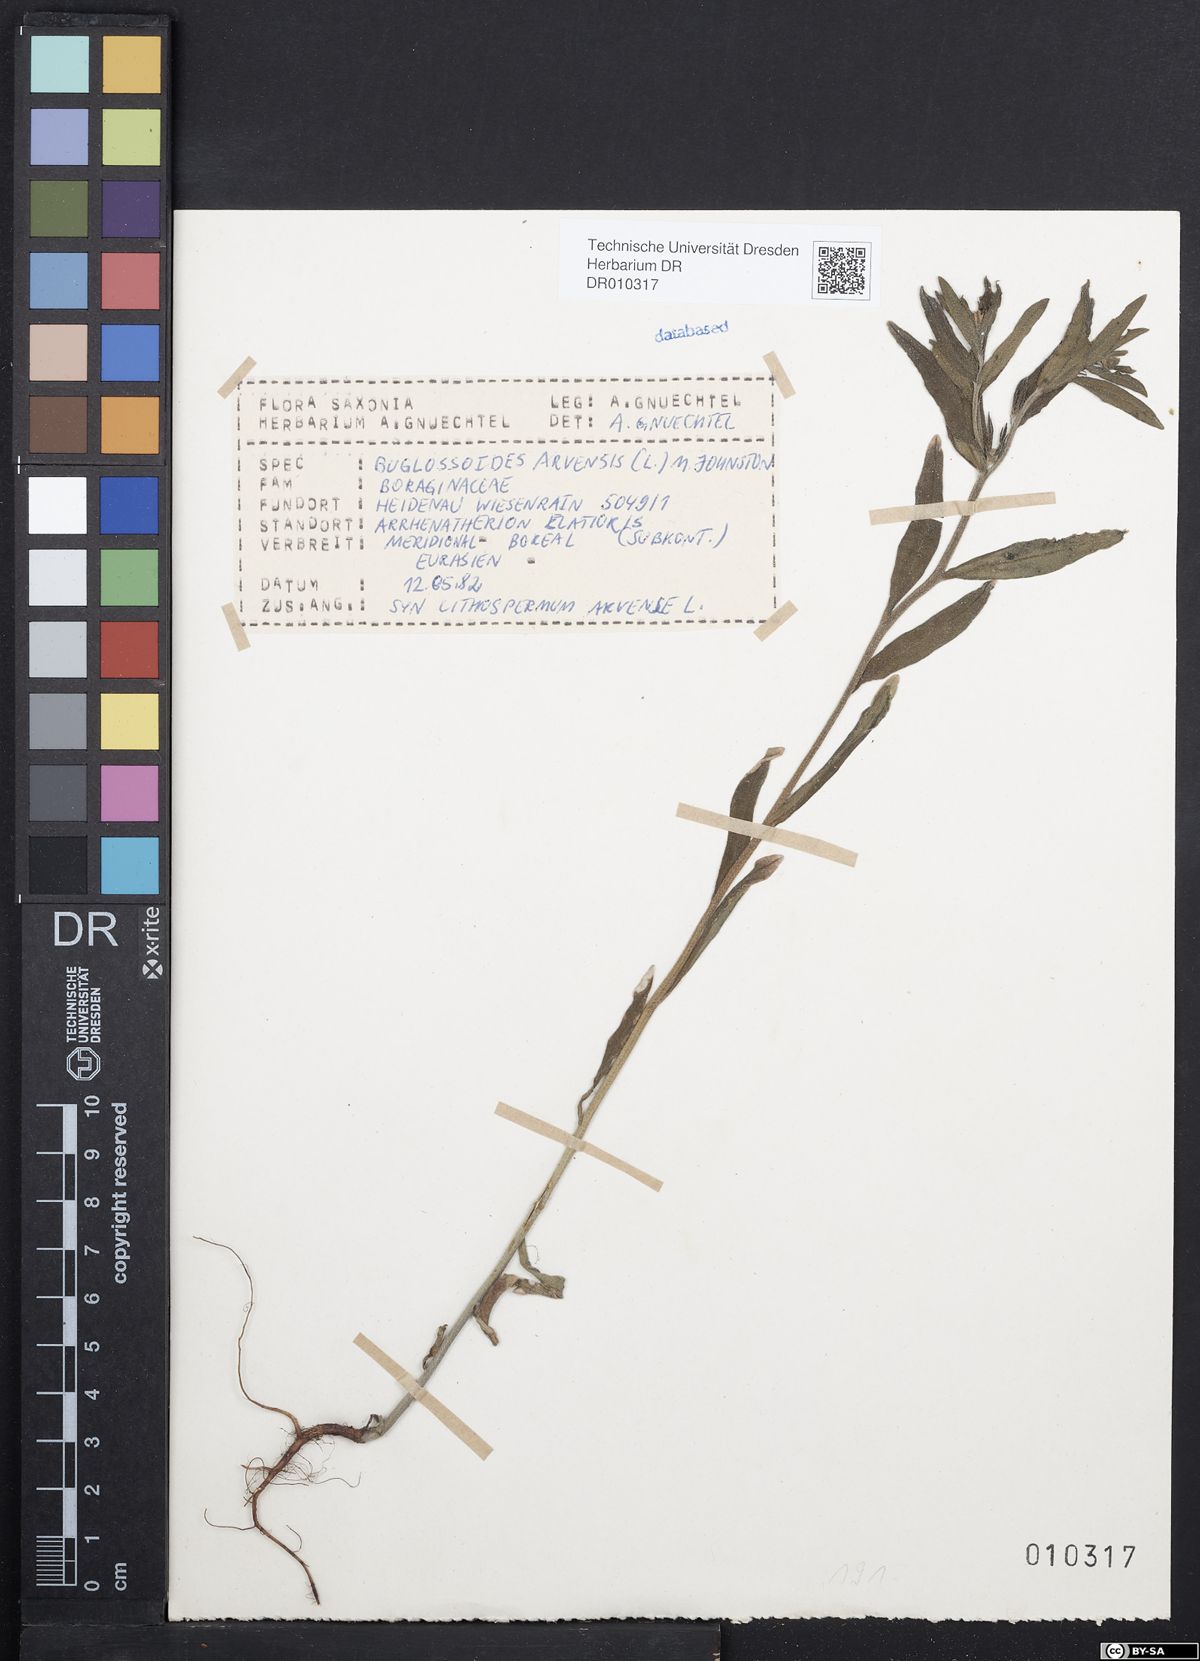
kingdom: Plantae
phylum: Tracheophyta
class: Magnoliopsida
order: Boraginales
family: Boraginaceae
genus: Buglossoides
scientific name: Buglossoides arvensis
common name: Corn gromwell
